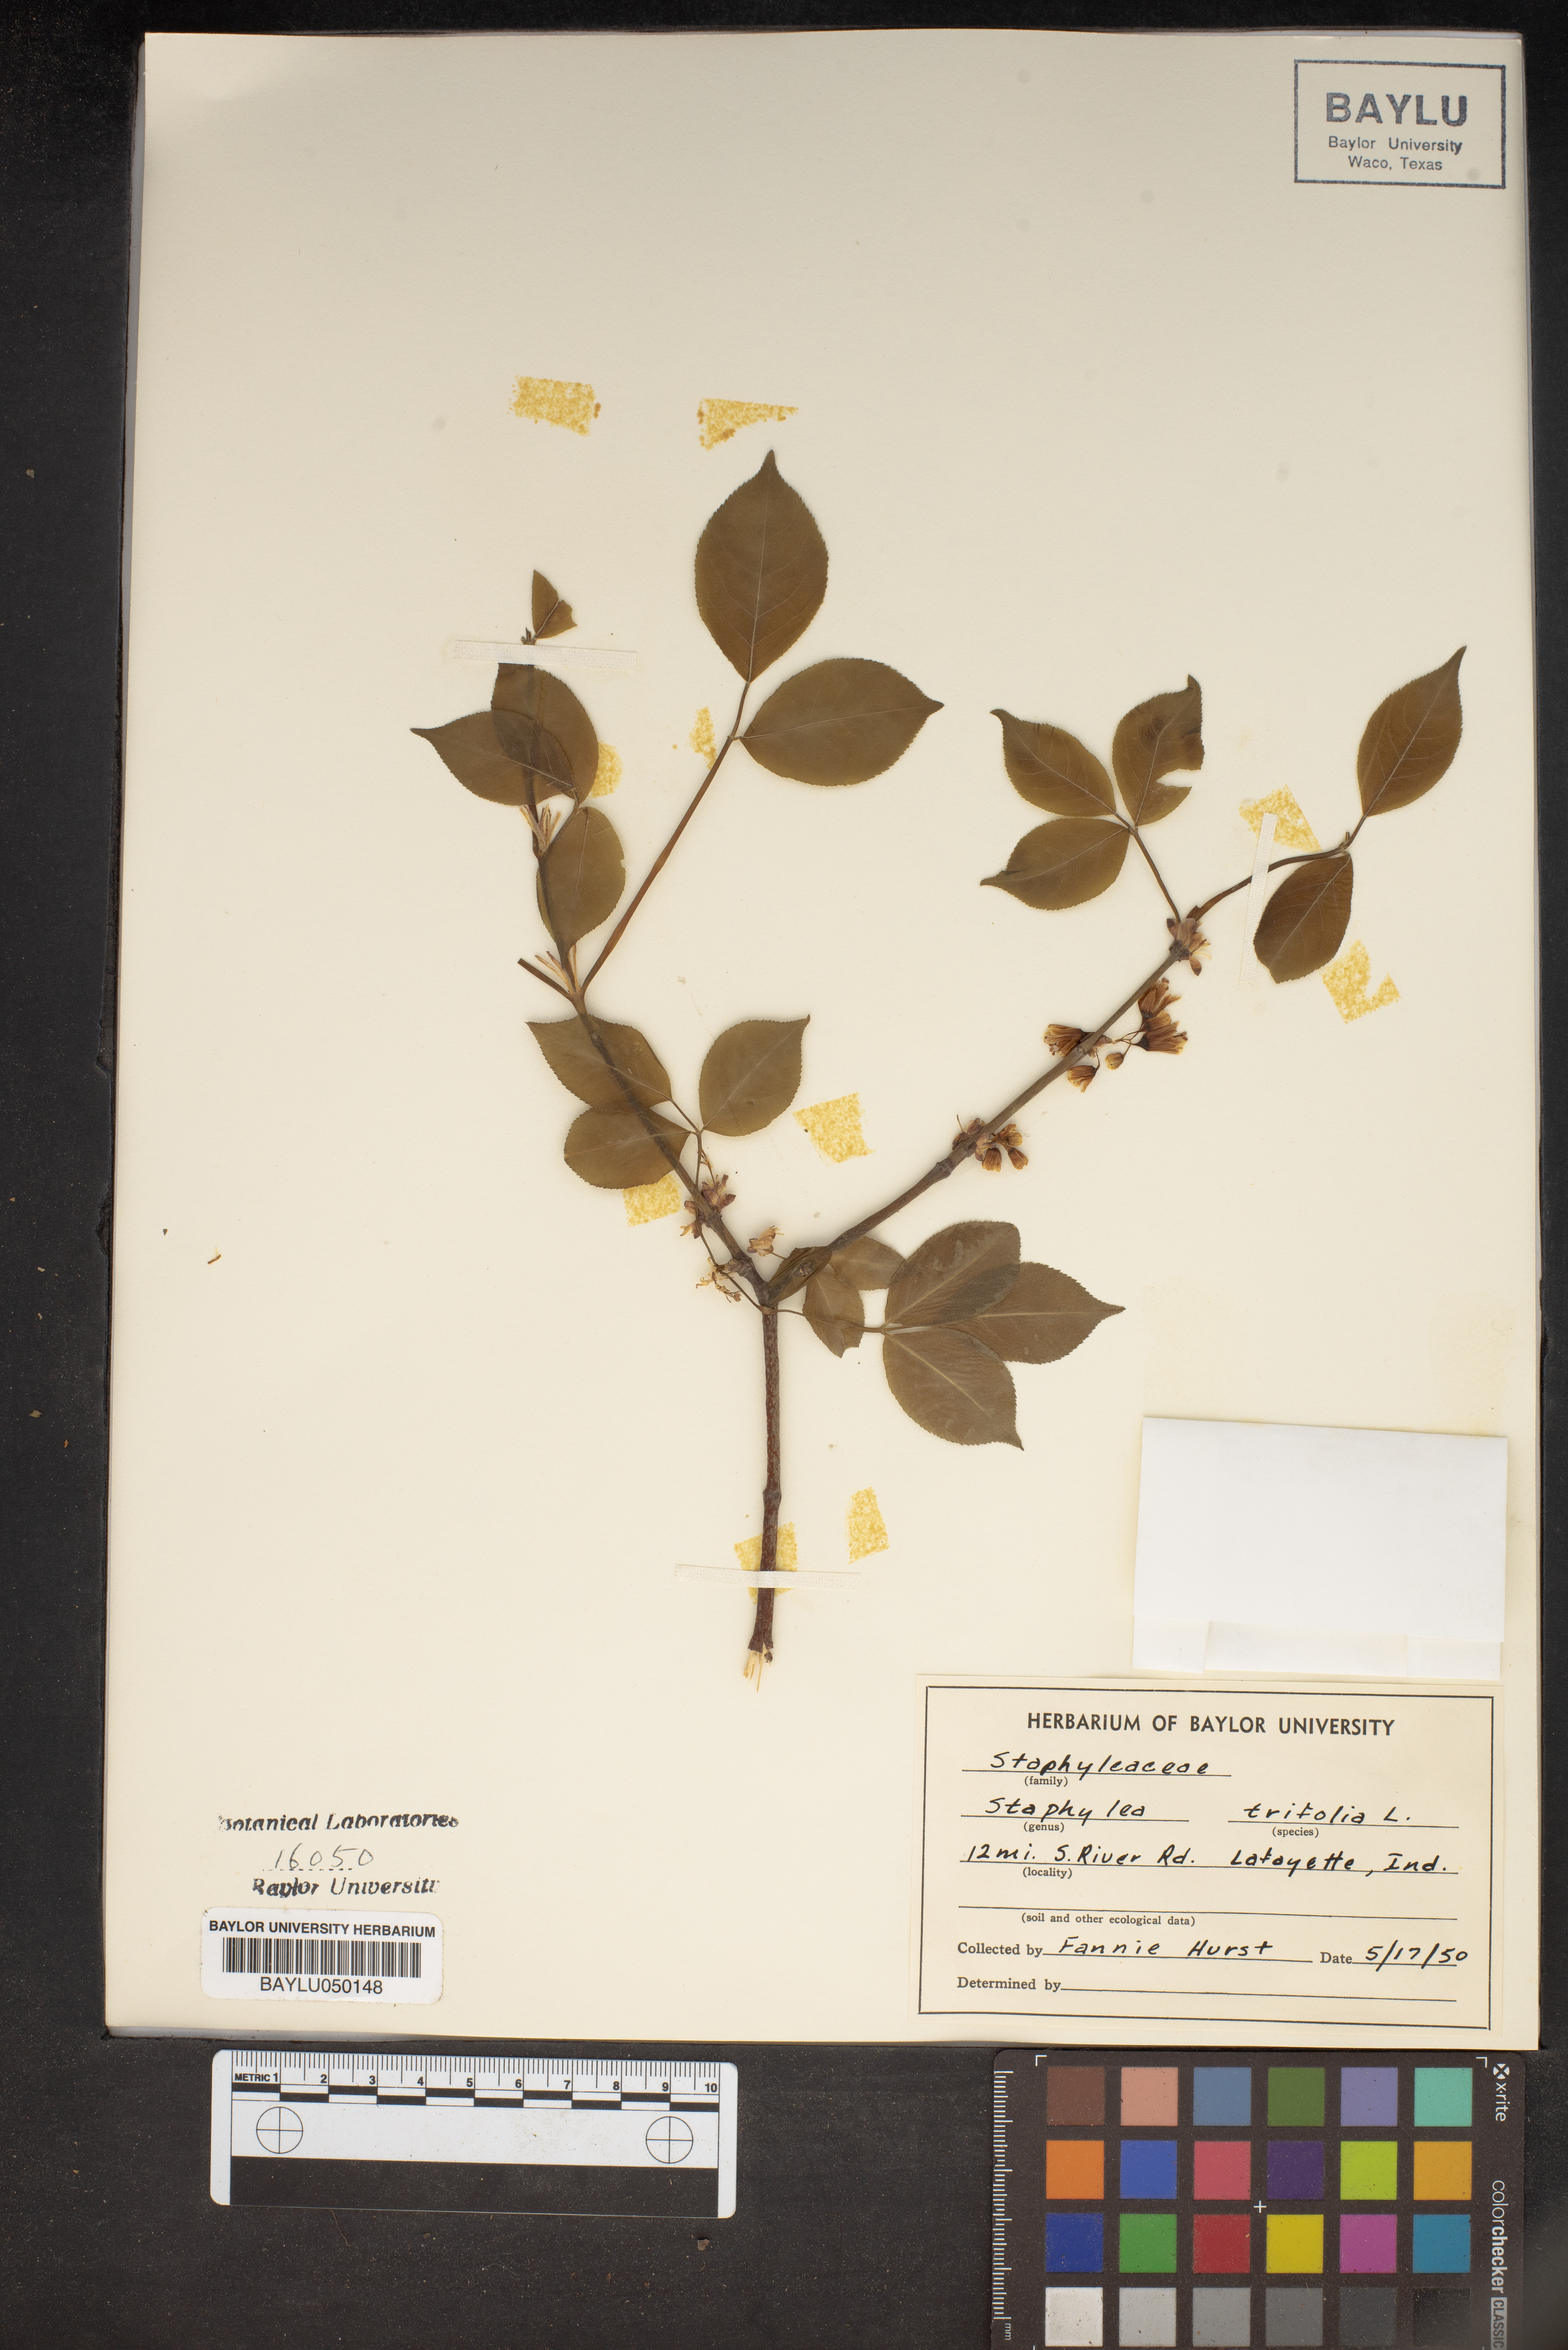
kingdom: Plantae
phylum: Tracheophyta
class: Magnoliopsida
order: Crossosomatales
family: Staphyleaceae
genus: Staphylea
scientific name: Staphylea trifolia
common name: American bladdernut
